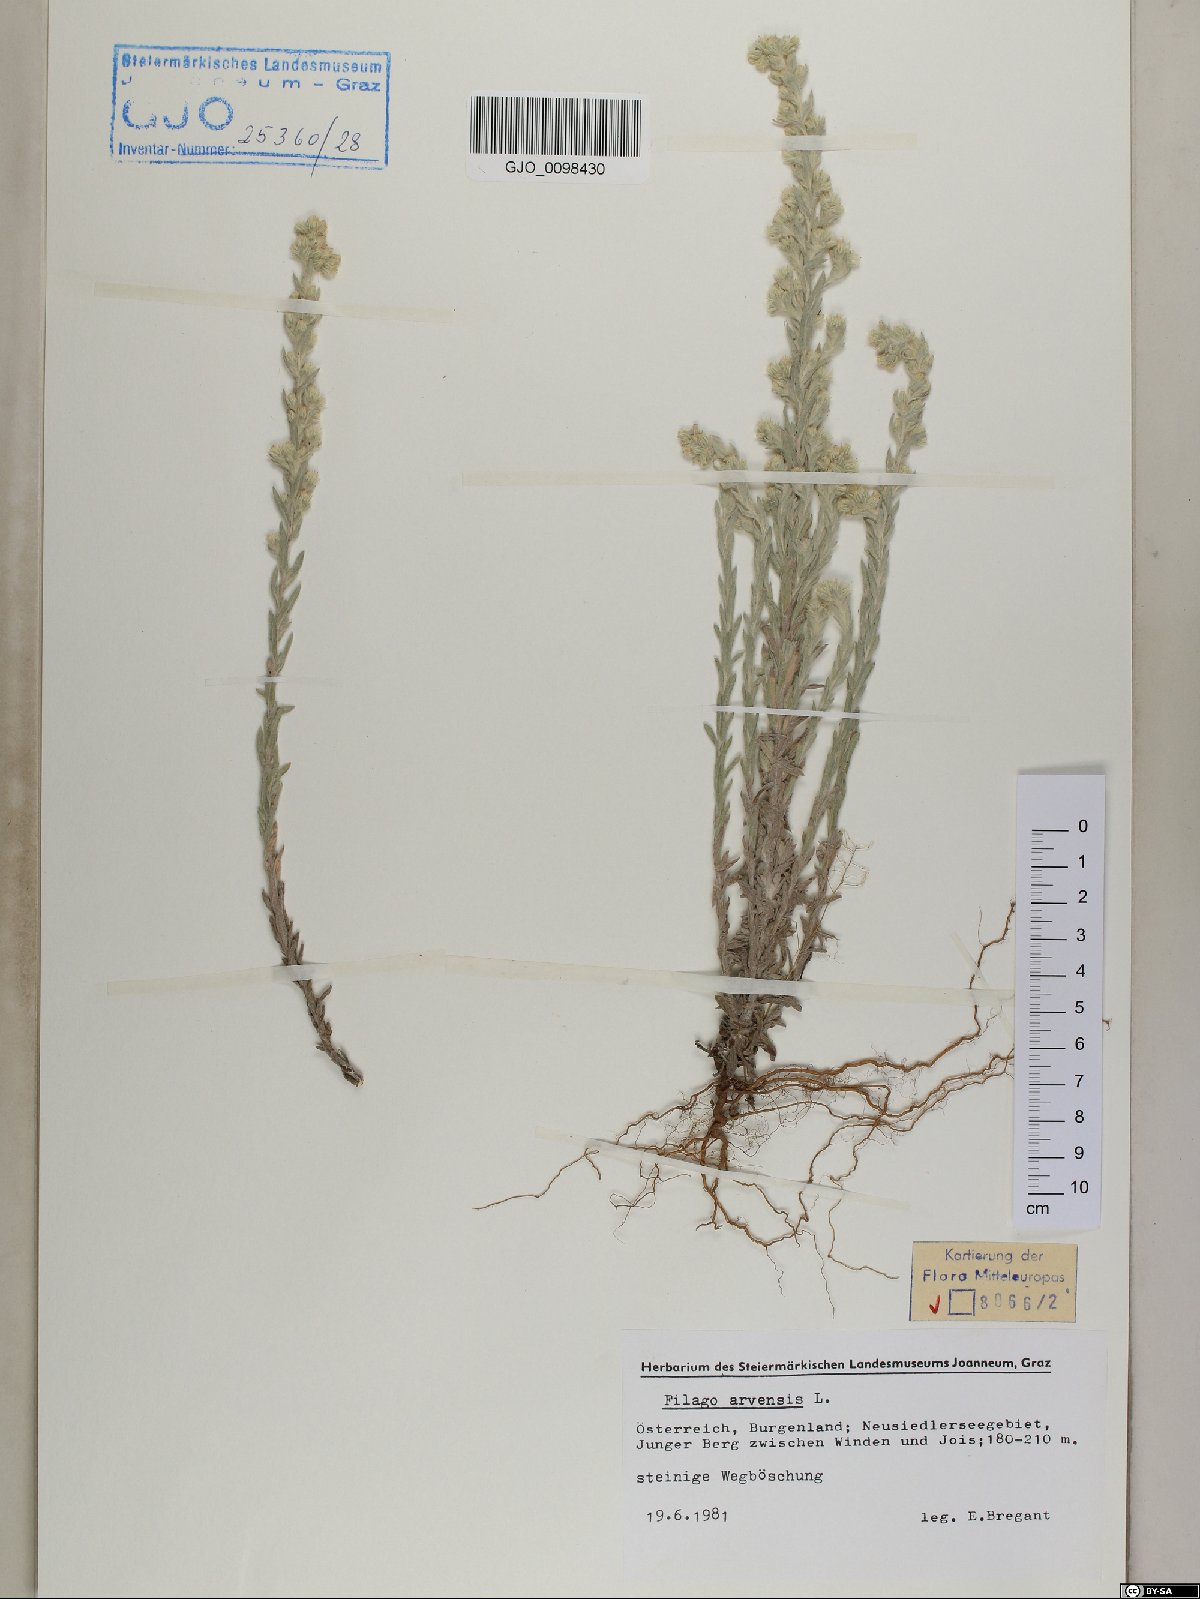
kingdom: Plantae
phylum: Tracheophyta
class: Magnoliopsida
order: Asterales
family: Asteraceae
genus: Filago
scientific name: Filago arvensis
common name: Field cudweed
